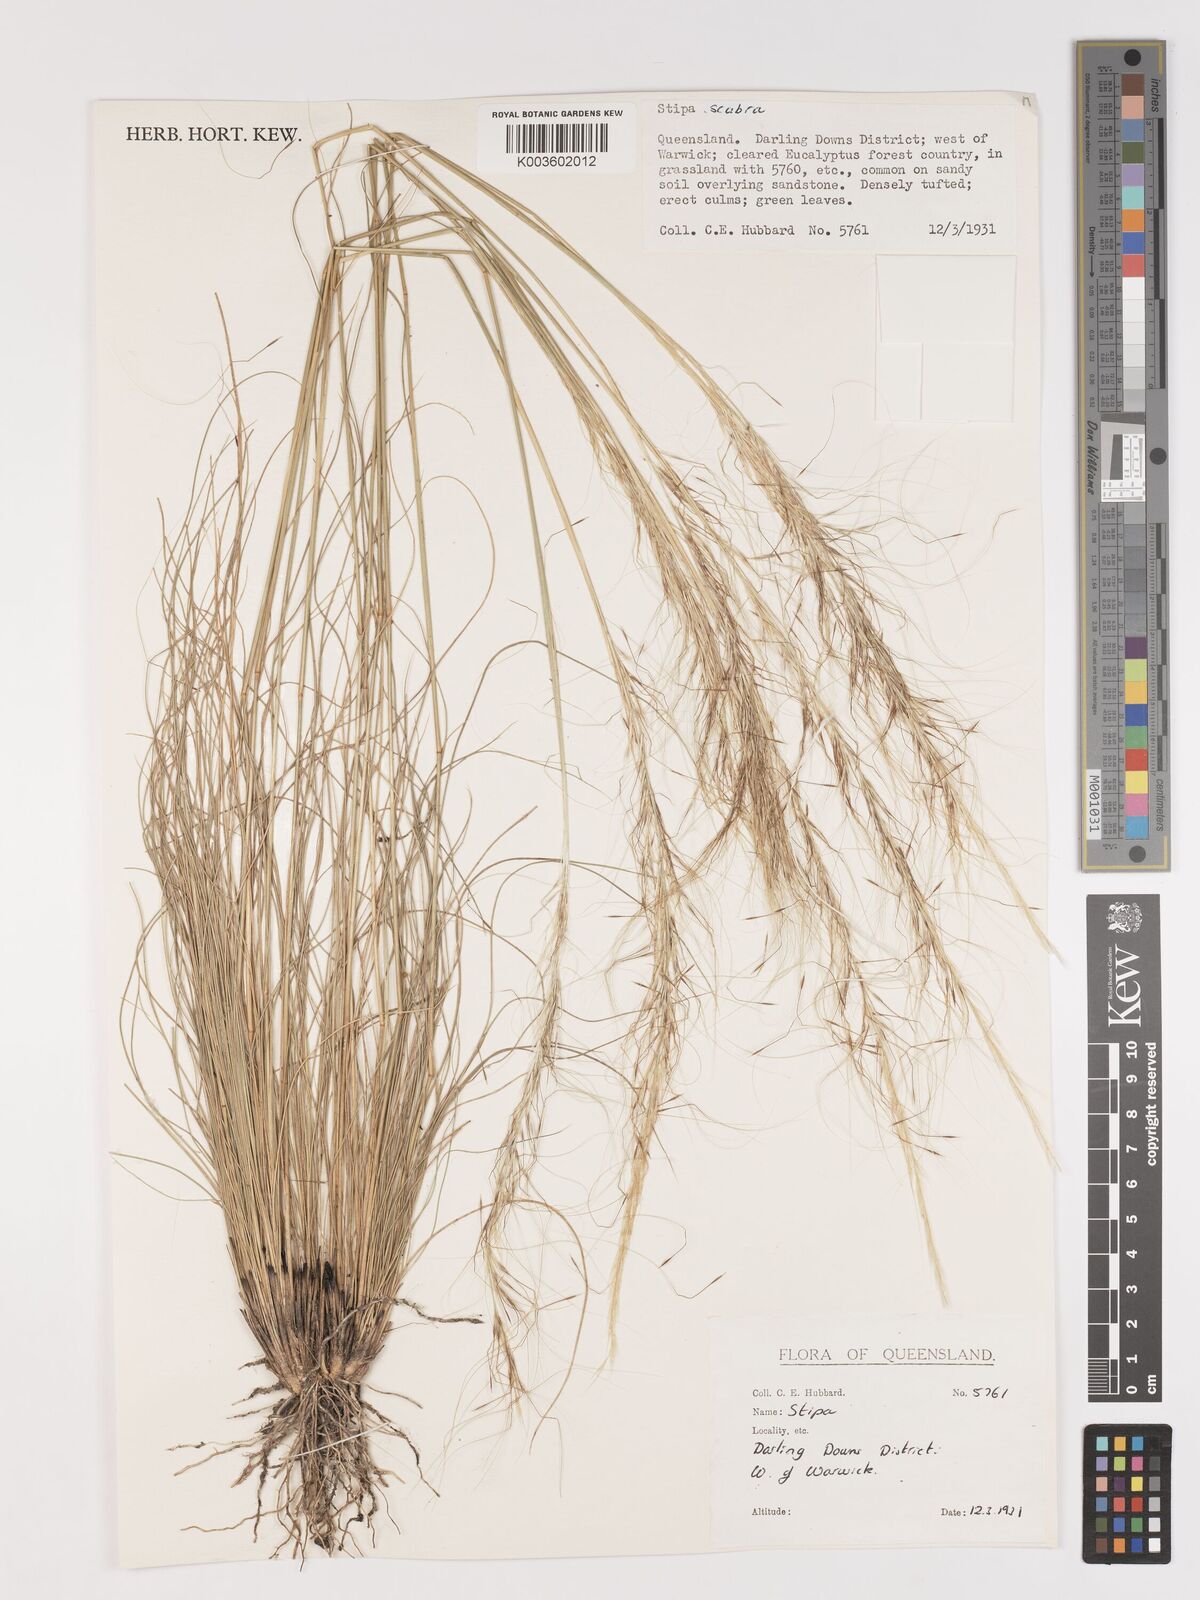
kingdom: Plantae
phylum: Tracheophyta
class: Liliopsida
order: Poales
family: Poaceae
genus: Austrostipa
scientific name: Austrostipa scabra
